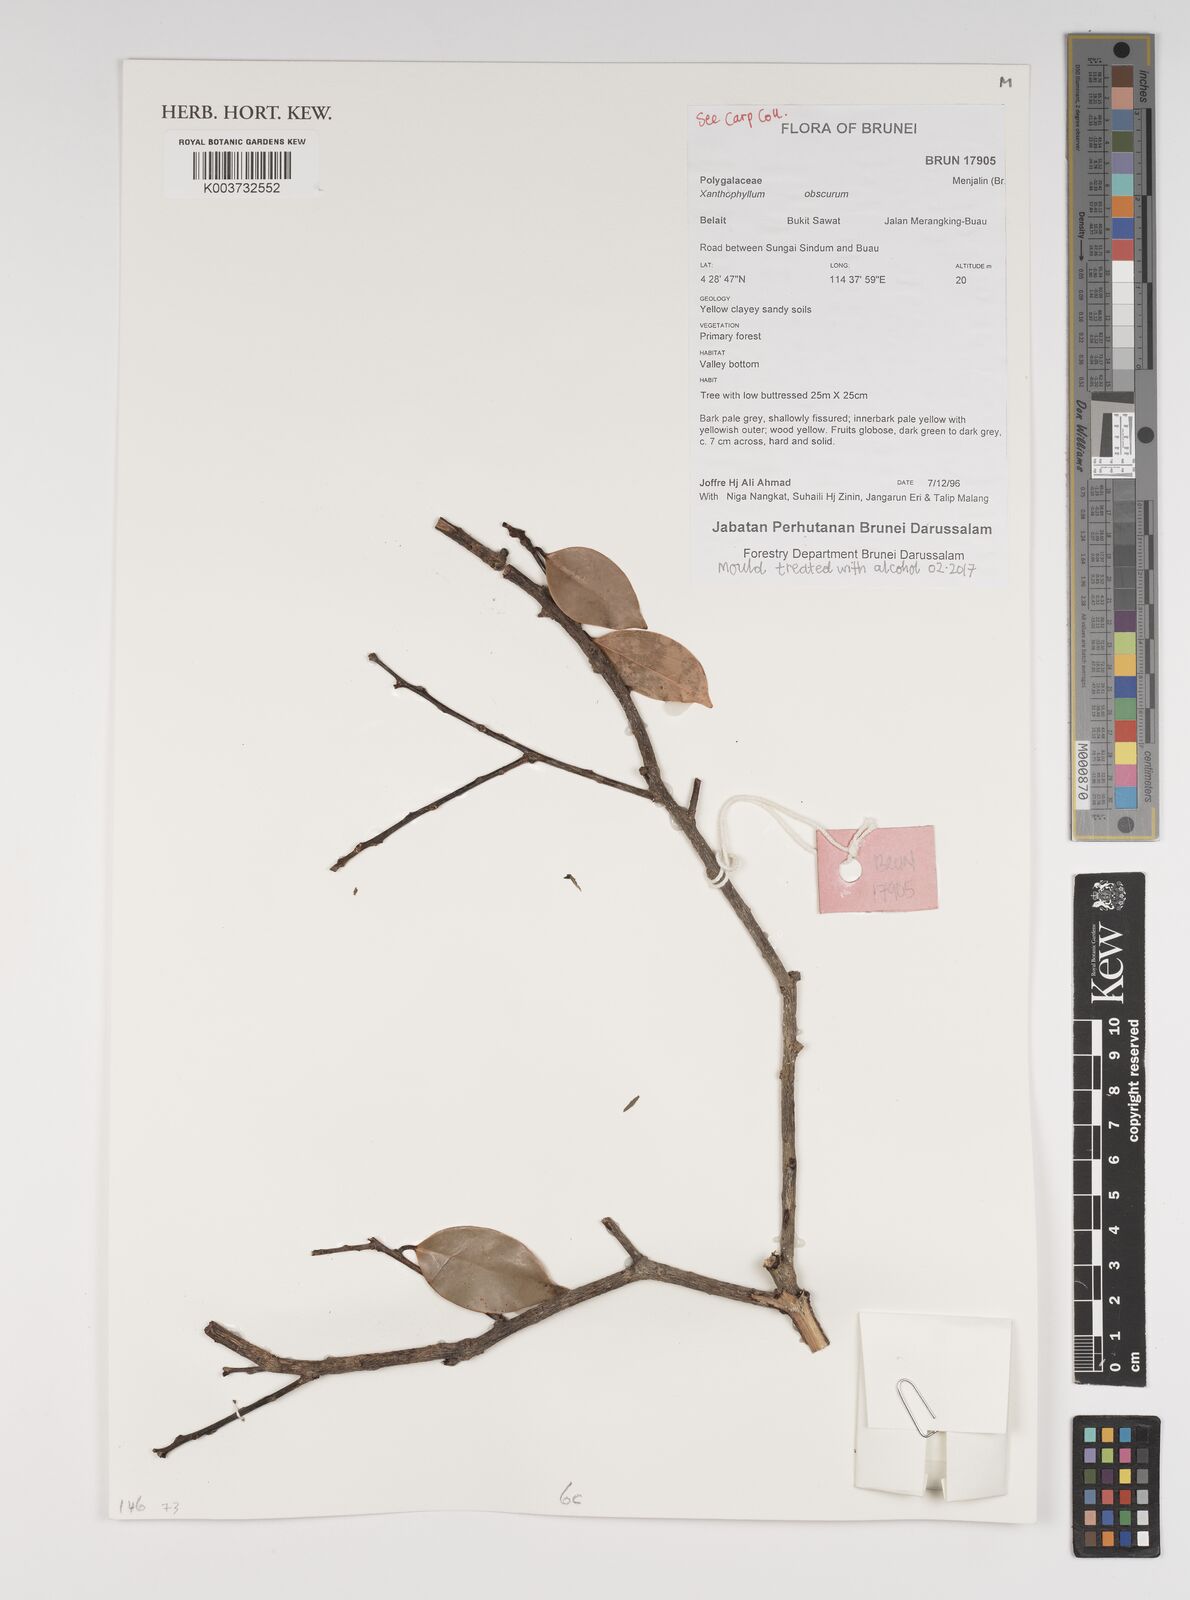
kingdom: Plantae
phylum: Tracheophyta
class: Magnoliopsida
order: Fabales
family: Polygalaceae
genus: Xanthophyllum
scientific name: Xanthophyllum obscurum
